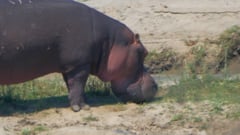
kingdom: Animalia
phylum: Chordata
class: Mammalia
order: Artiodactyla
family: Hippopotamidae
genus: Hippopotamus
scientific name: Hippopotamus amphibius
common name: Common hippopotamus
